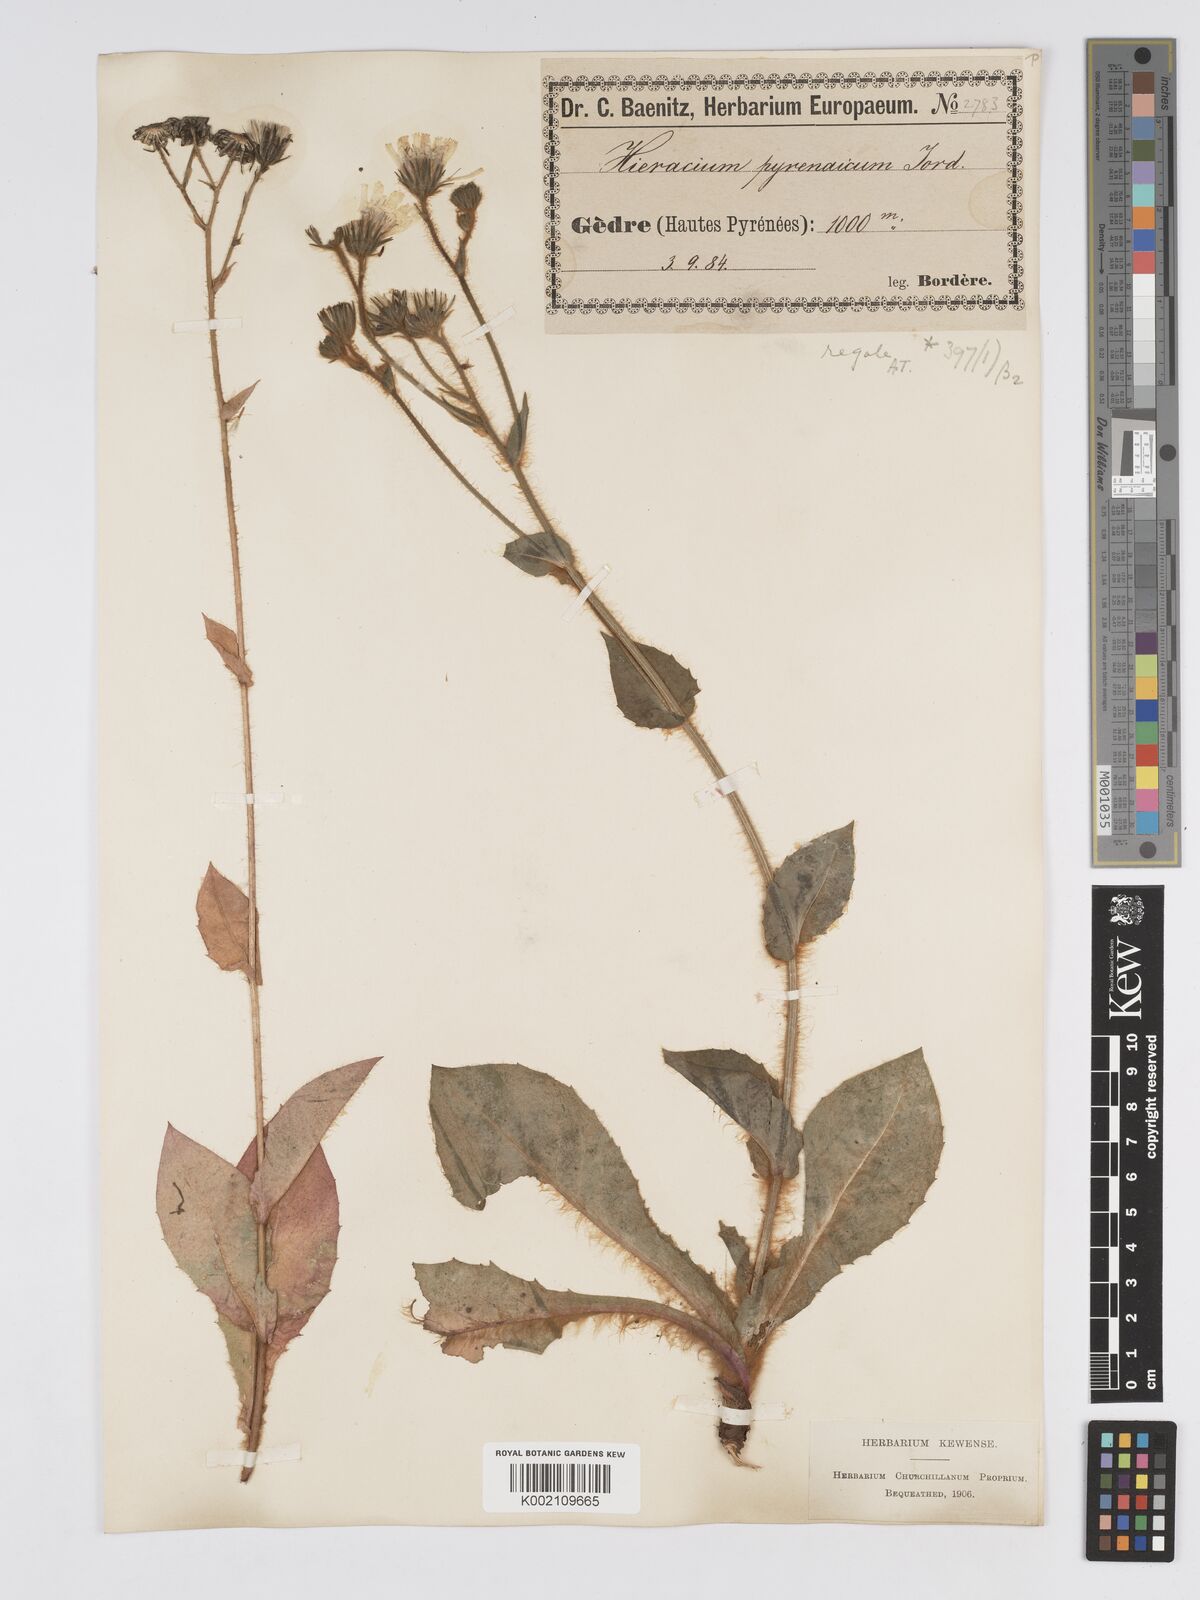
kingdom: Plantae
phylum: Tracheophyta
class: Magnoliopsida
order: Asterales
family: Asteraceae
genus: Hieracium
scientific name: Hieracium nobile
